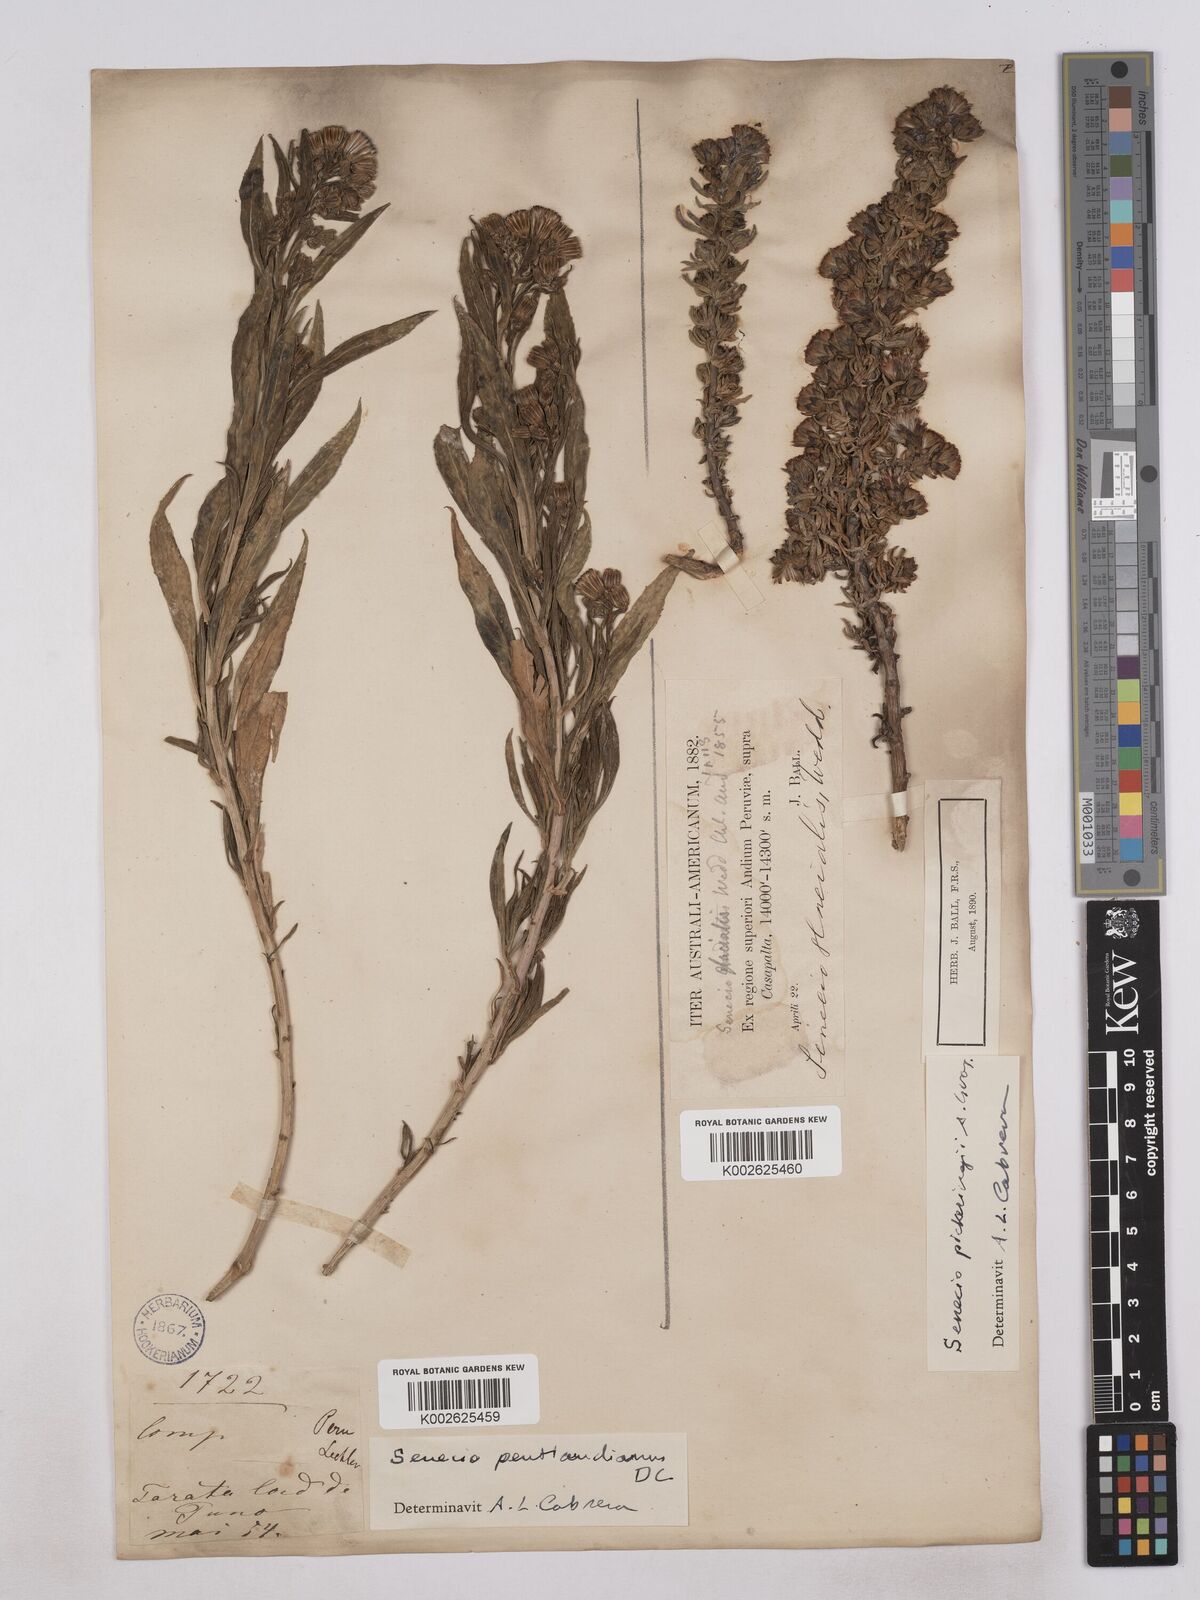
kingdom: Plantae
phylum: Tracheophyta
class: Magnoliopsida
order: Asterales
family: Asteraceae
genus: Senecio
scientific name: Senecio pentlandianus
